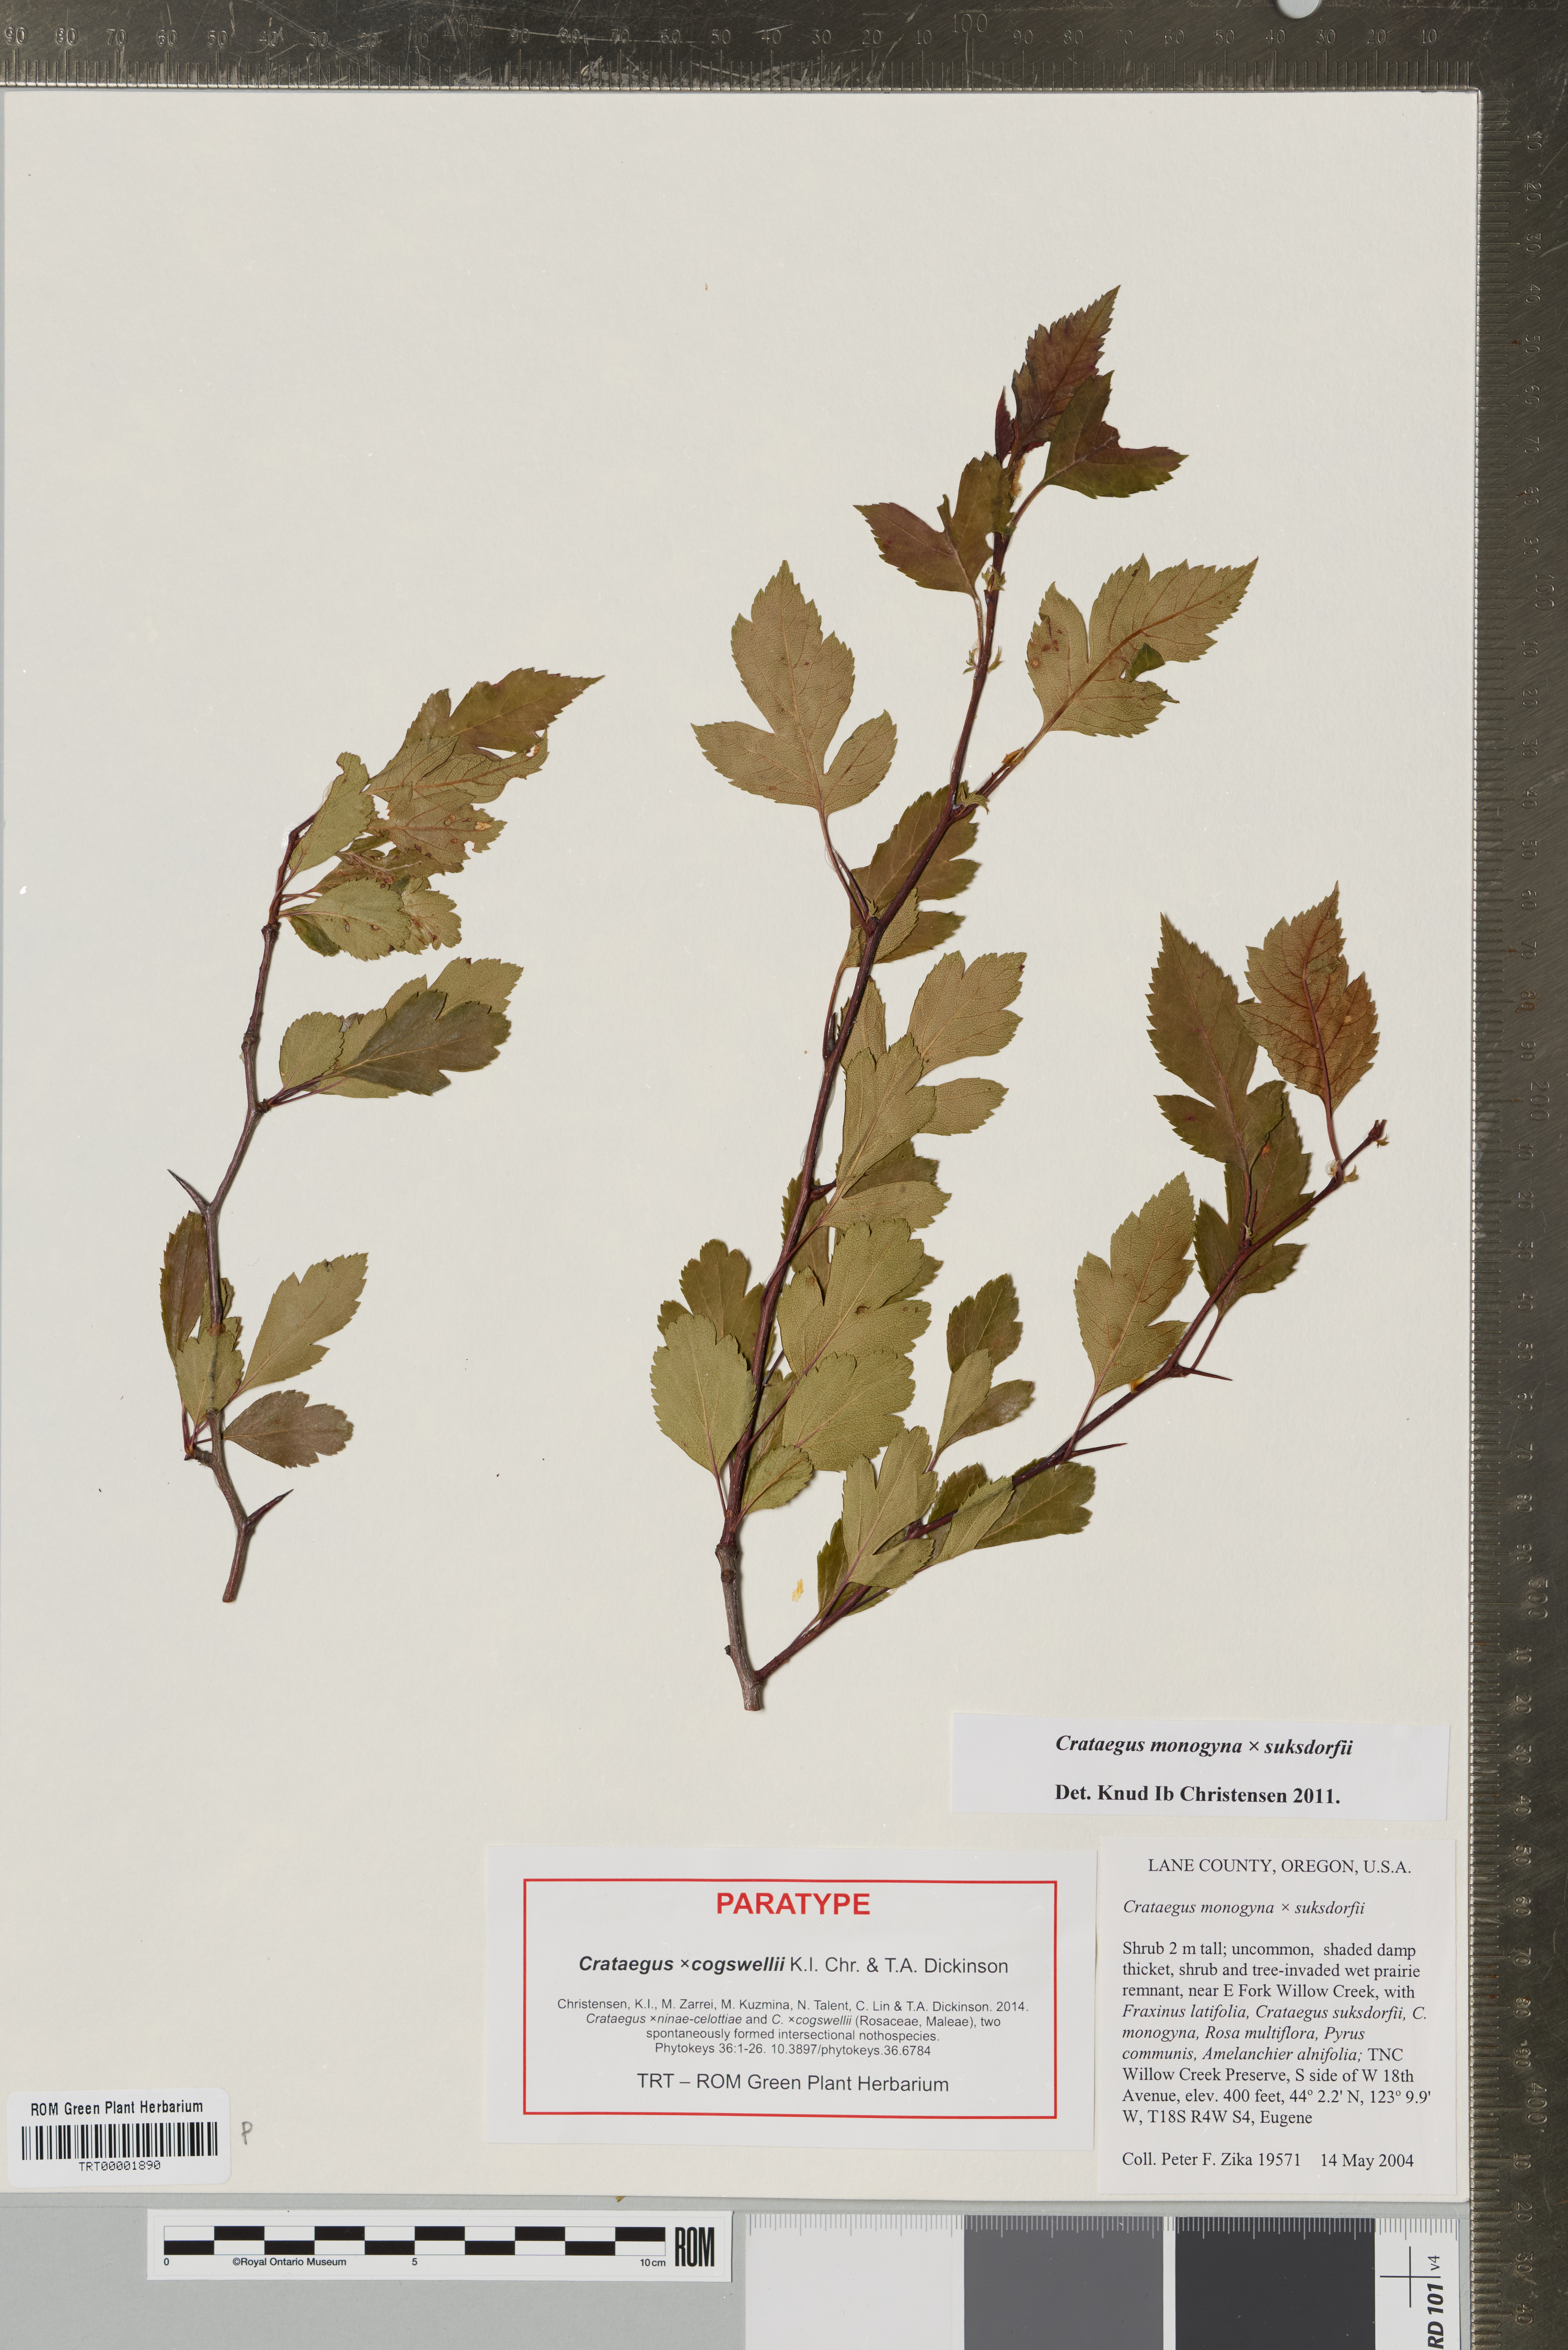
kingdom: Plantae
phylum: Tracheophyta
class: Magnoliopsida
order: Rosales
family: Rosaceae
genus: Crataegus
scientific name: Crataegus
